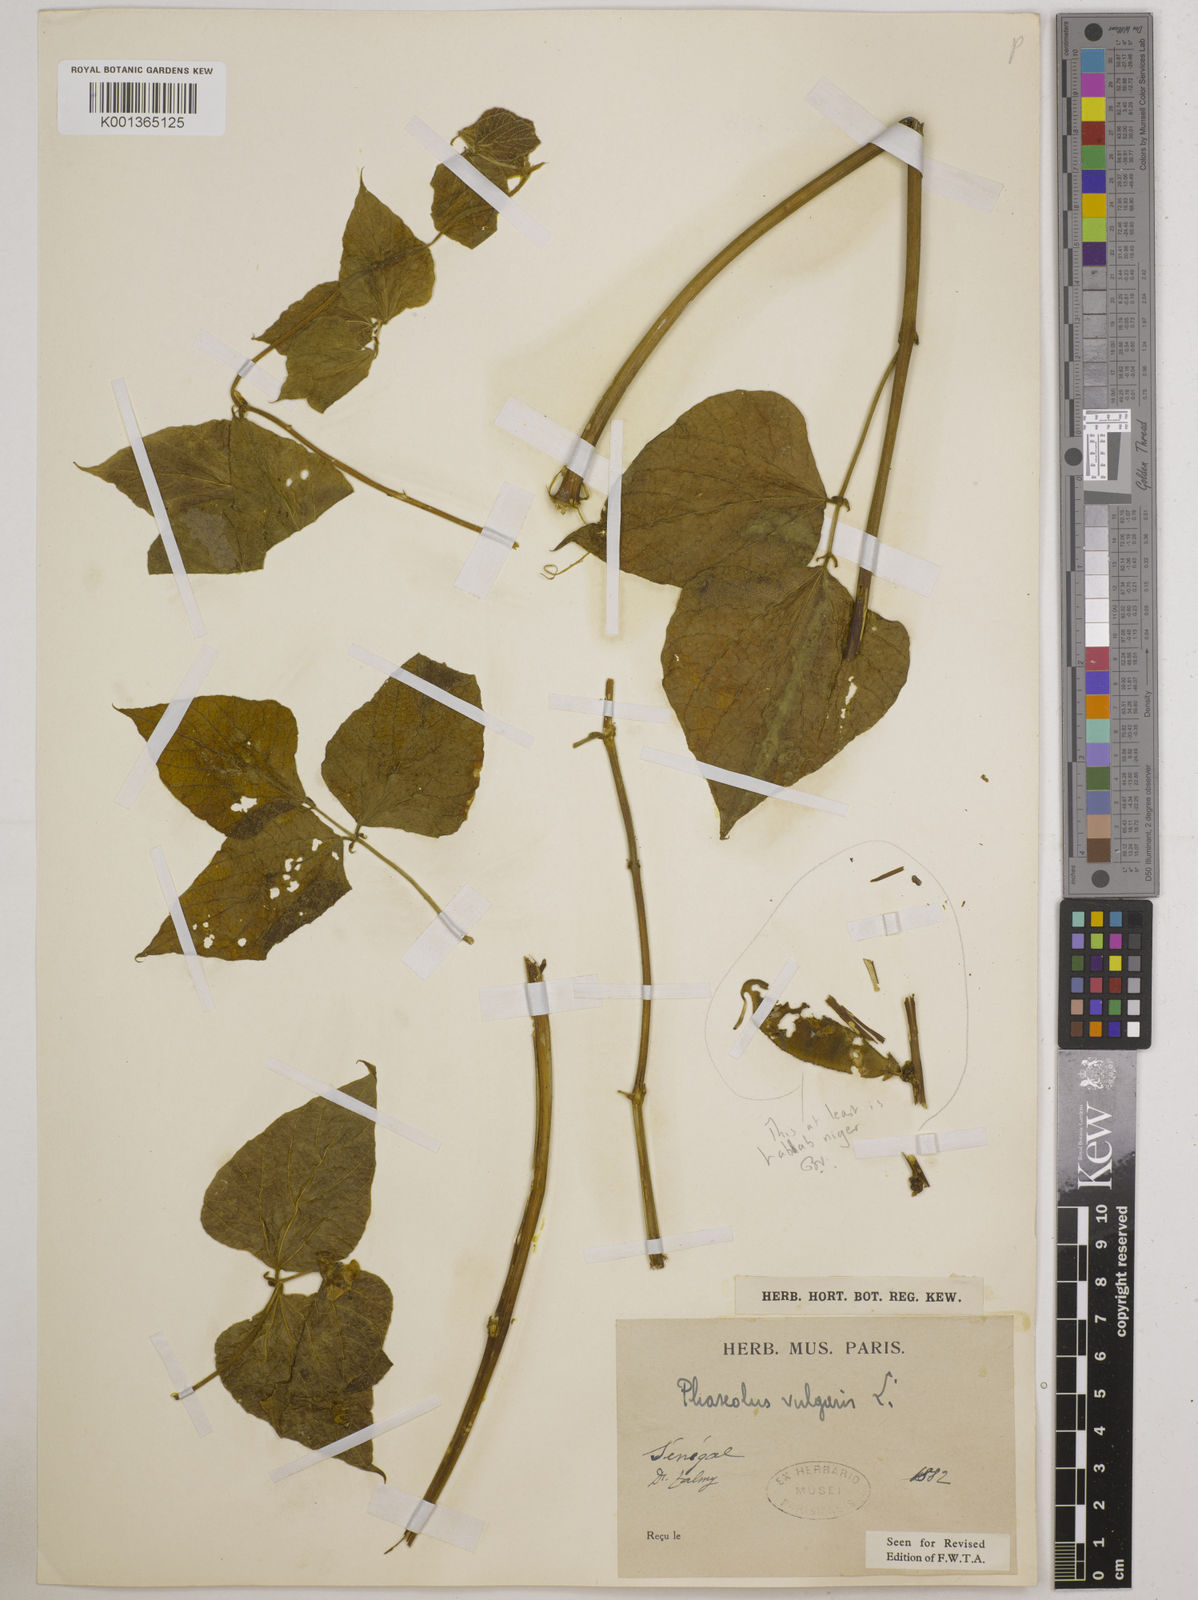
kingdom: Plantae
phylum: Tracheophyta
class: Magnoliopsida
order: Fabales
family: Fabaceae
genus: Phaseolus
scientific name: Phaseolus vulgaris
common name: Bean
